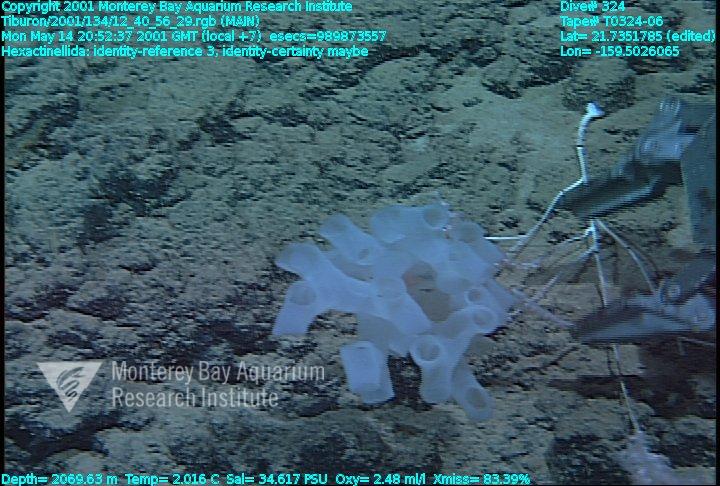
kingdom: Animalia
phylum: Porifera
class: Hexactinellida
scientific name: Hexactinellida
